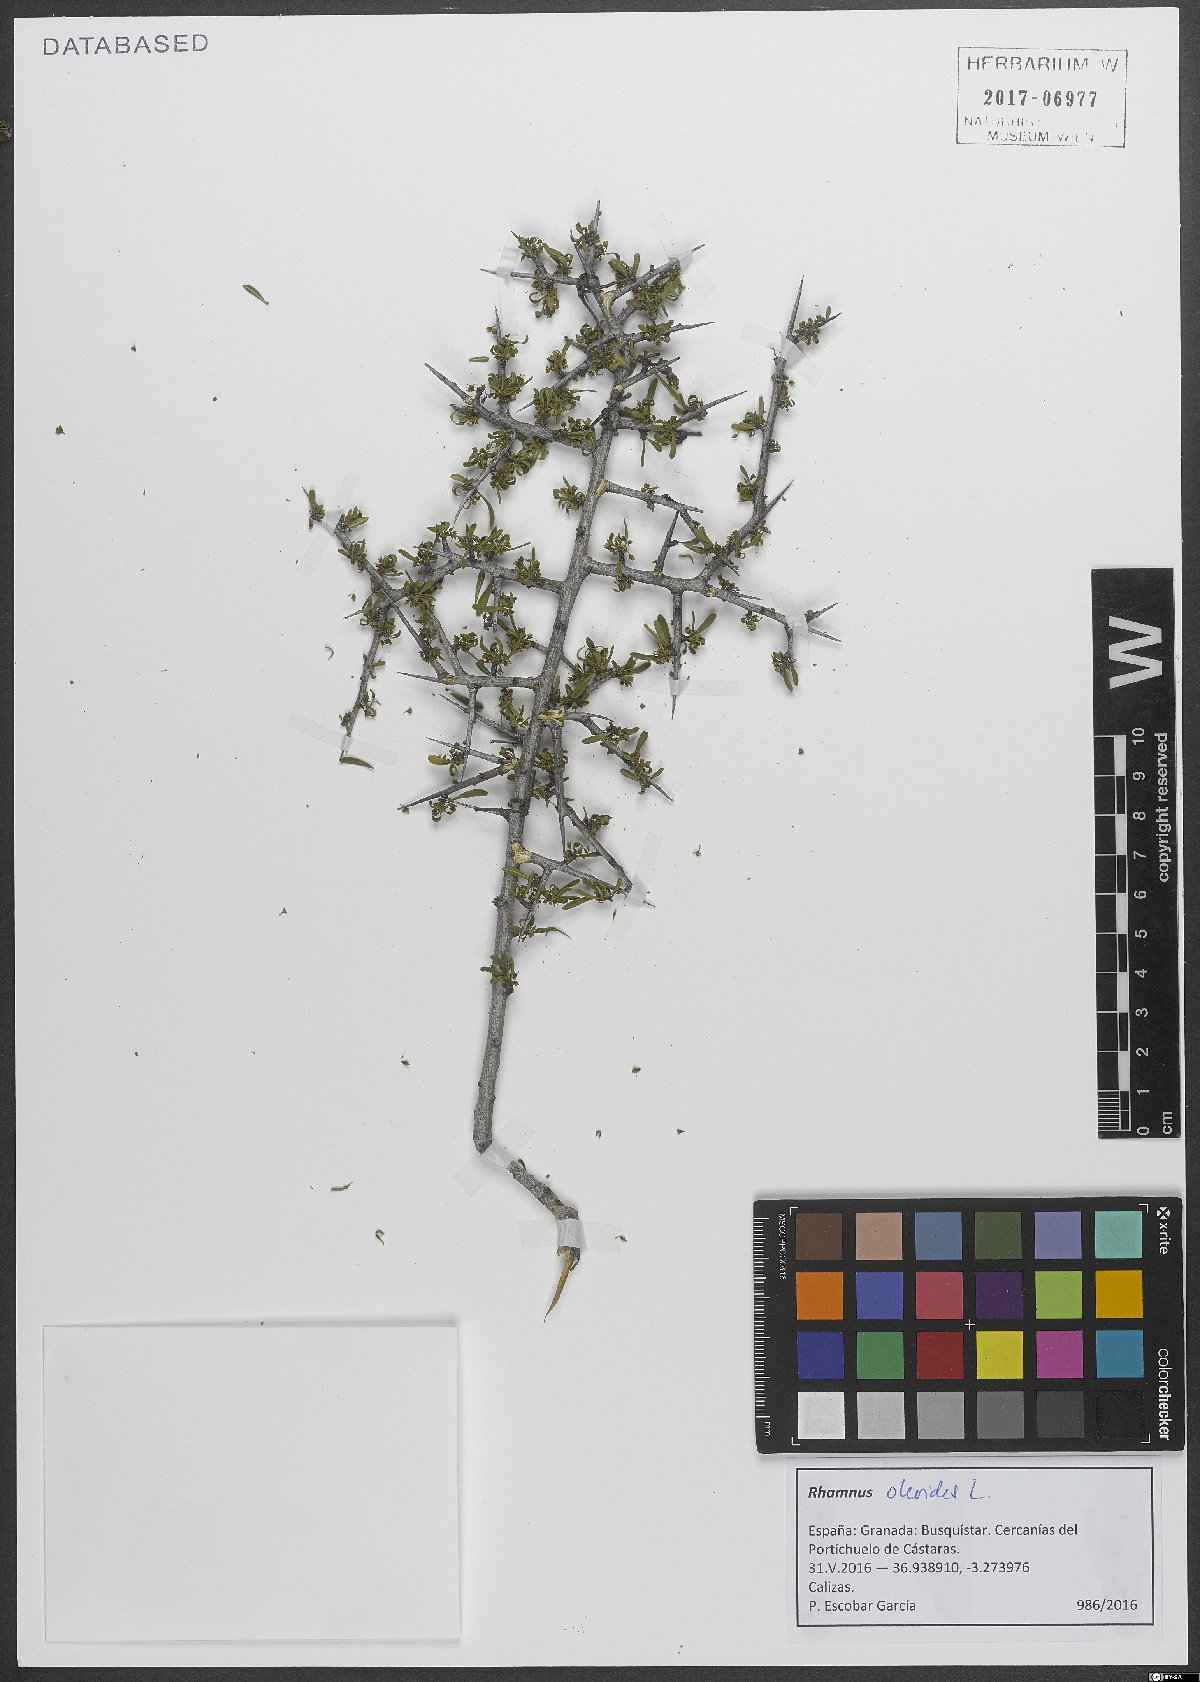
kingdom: Plantae
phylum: Tracheophyta
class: Magnoliopsida
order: Rosales
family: Rhamnaceae
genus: Rhamnus
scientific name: Rhamnus oleoides
